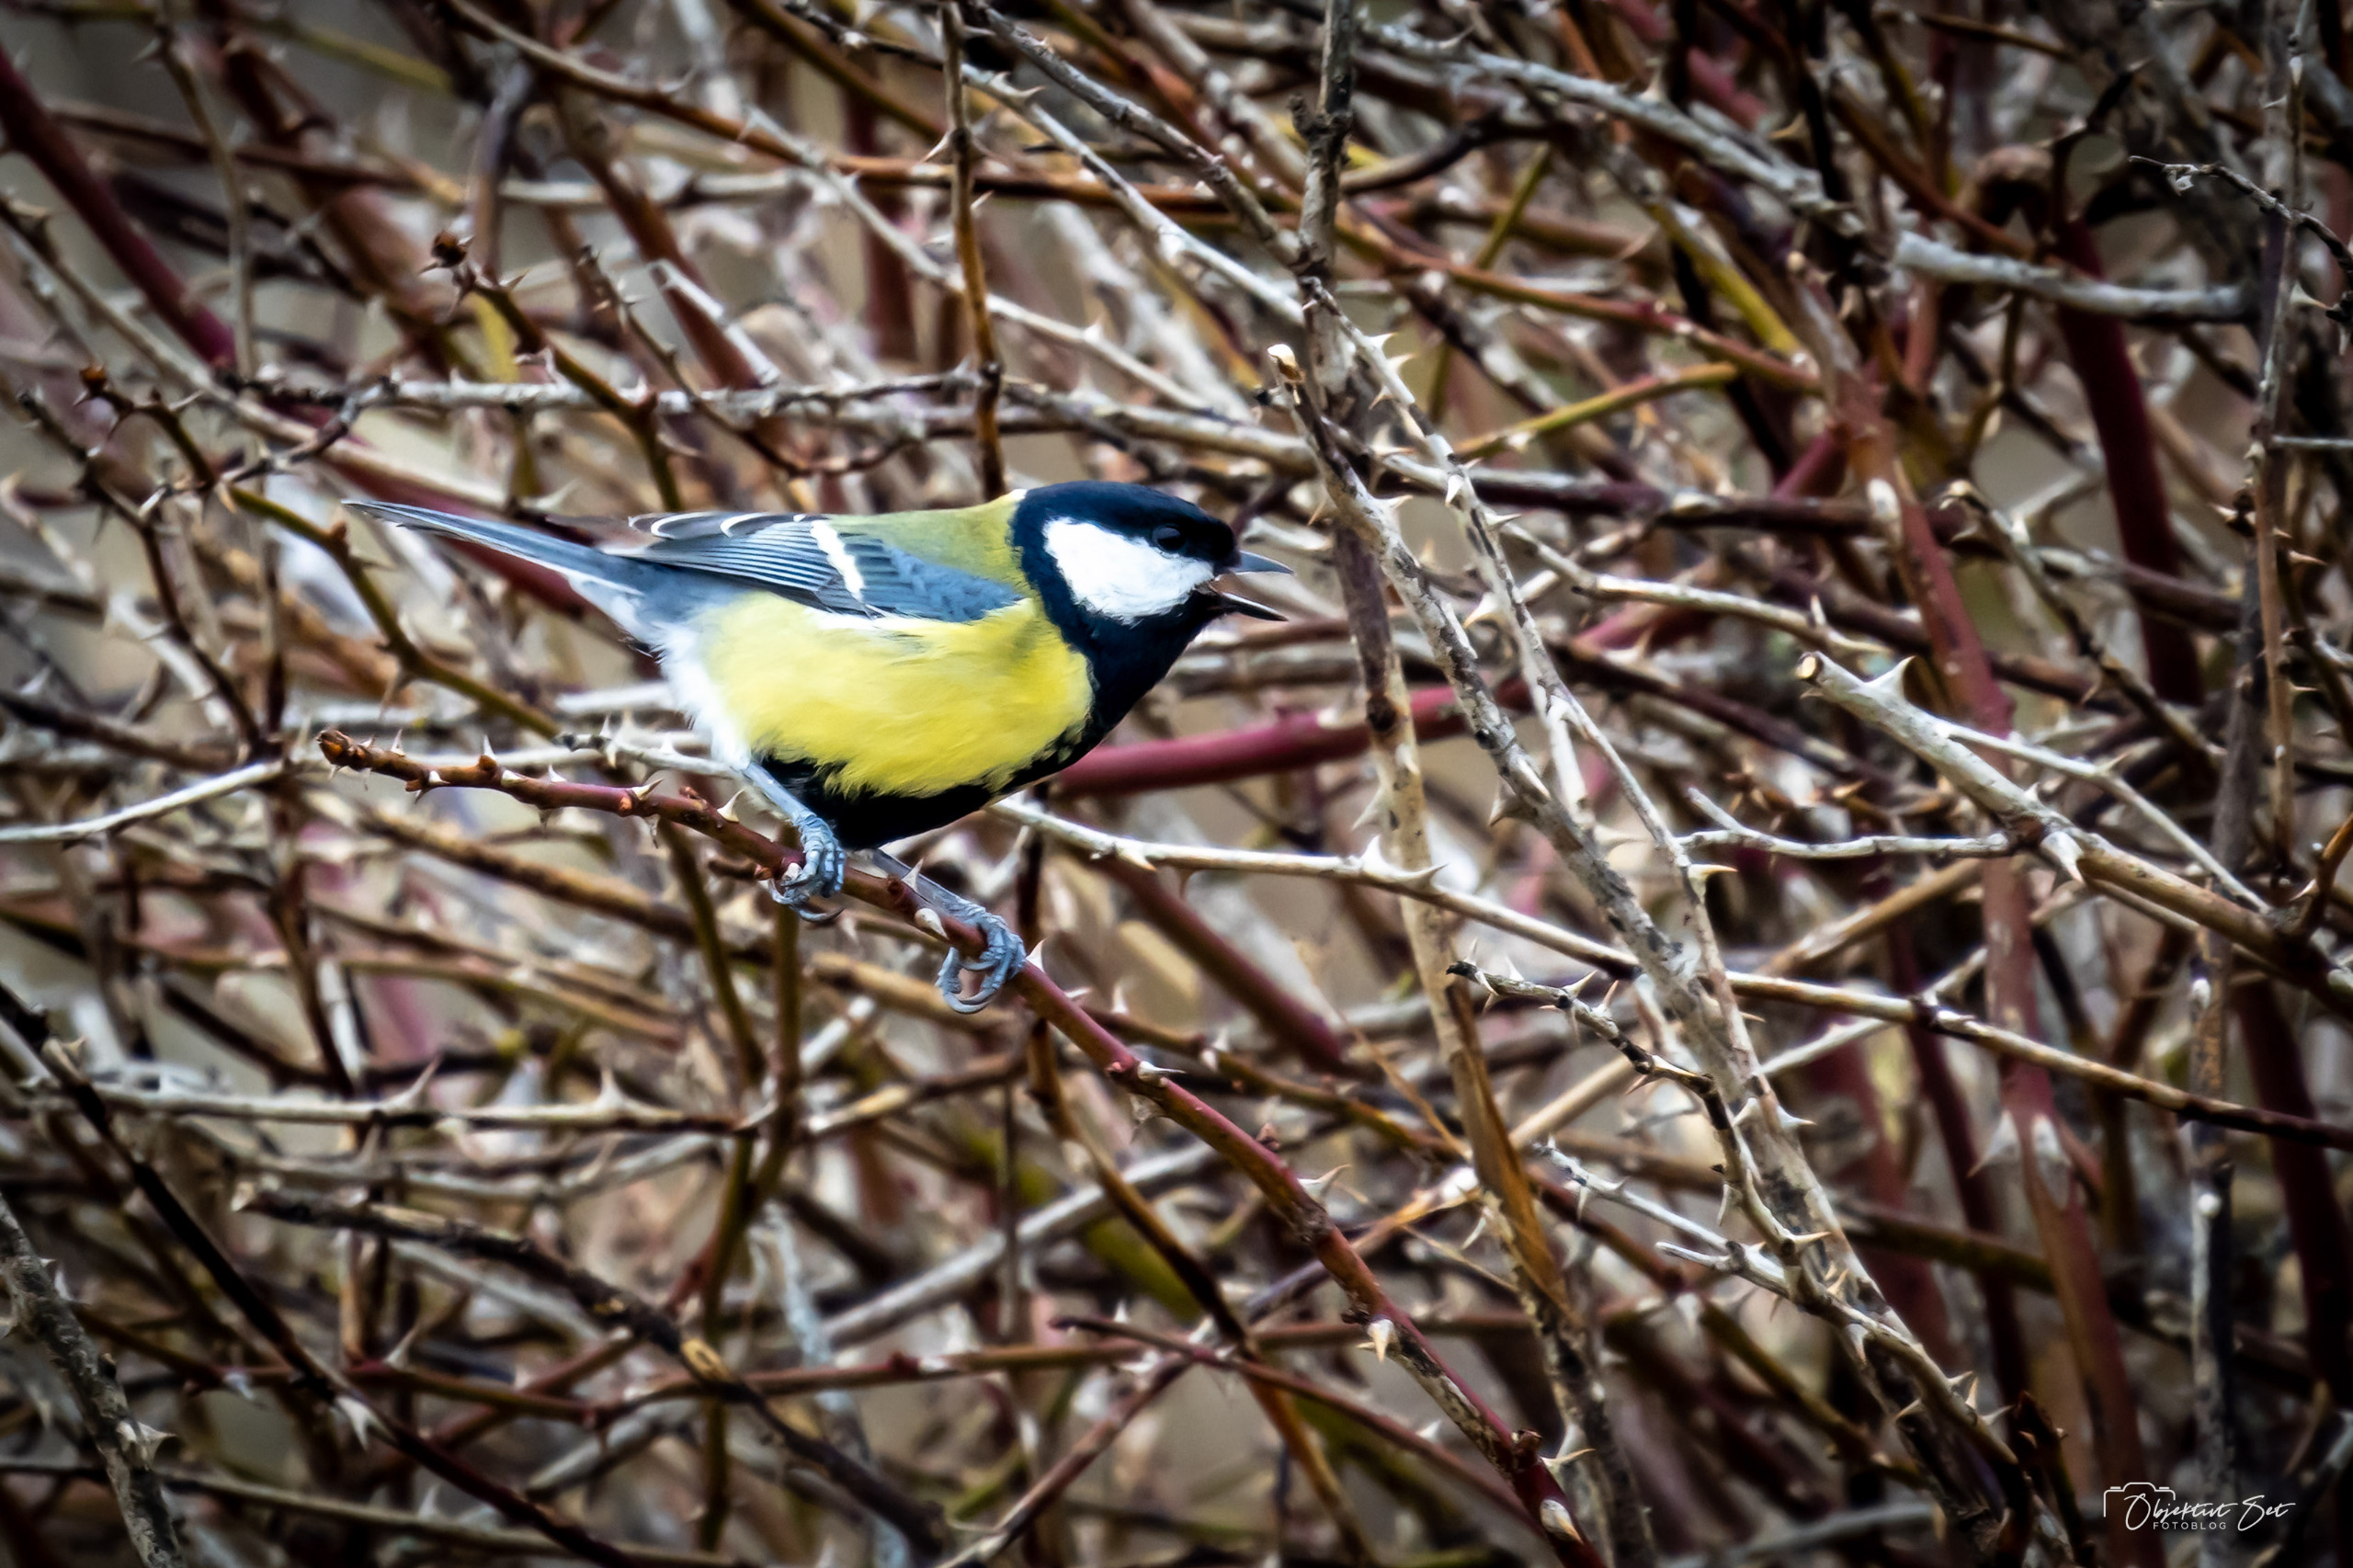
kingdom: Animalia
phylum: Chordata
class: Aves
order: Passeriformes
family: Paridae
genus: Parus
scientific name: Parus major
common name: Musvit
